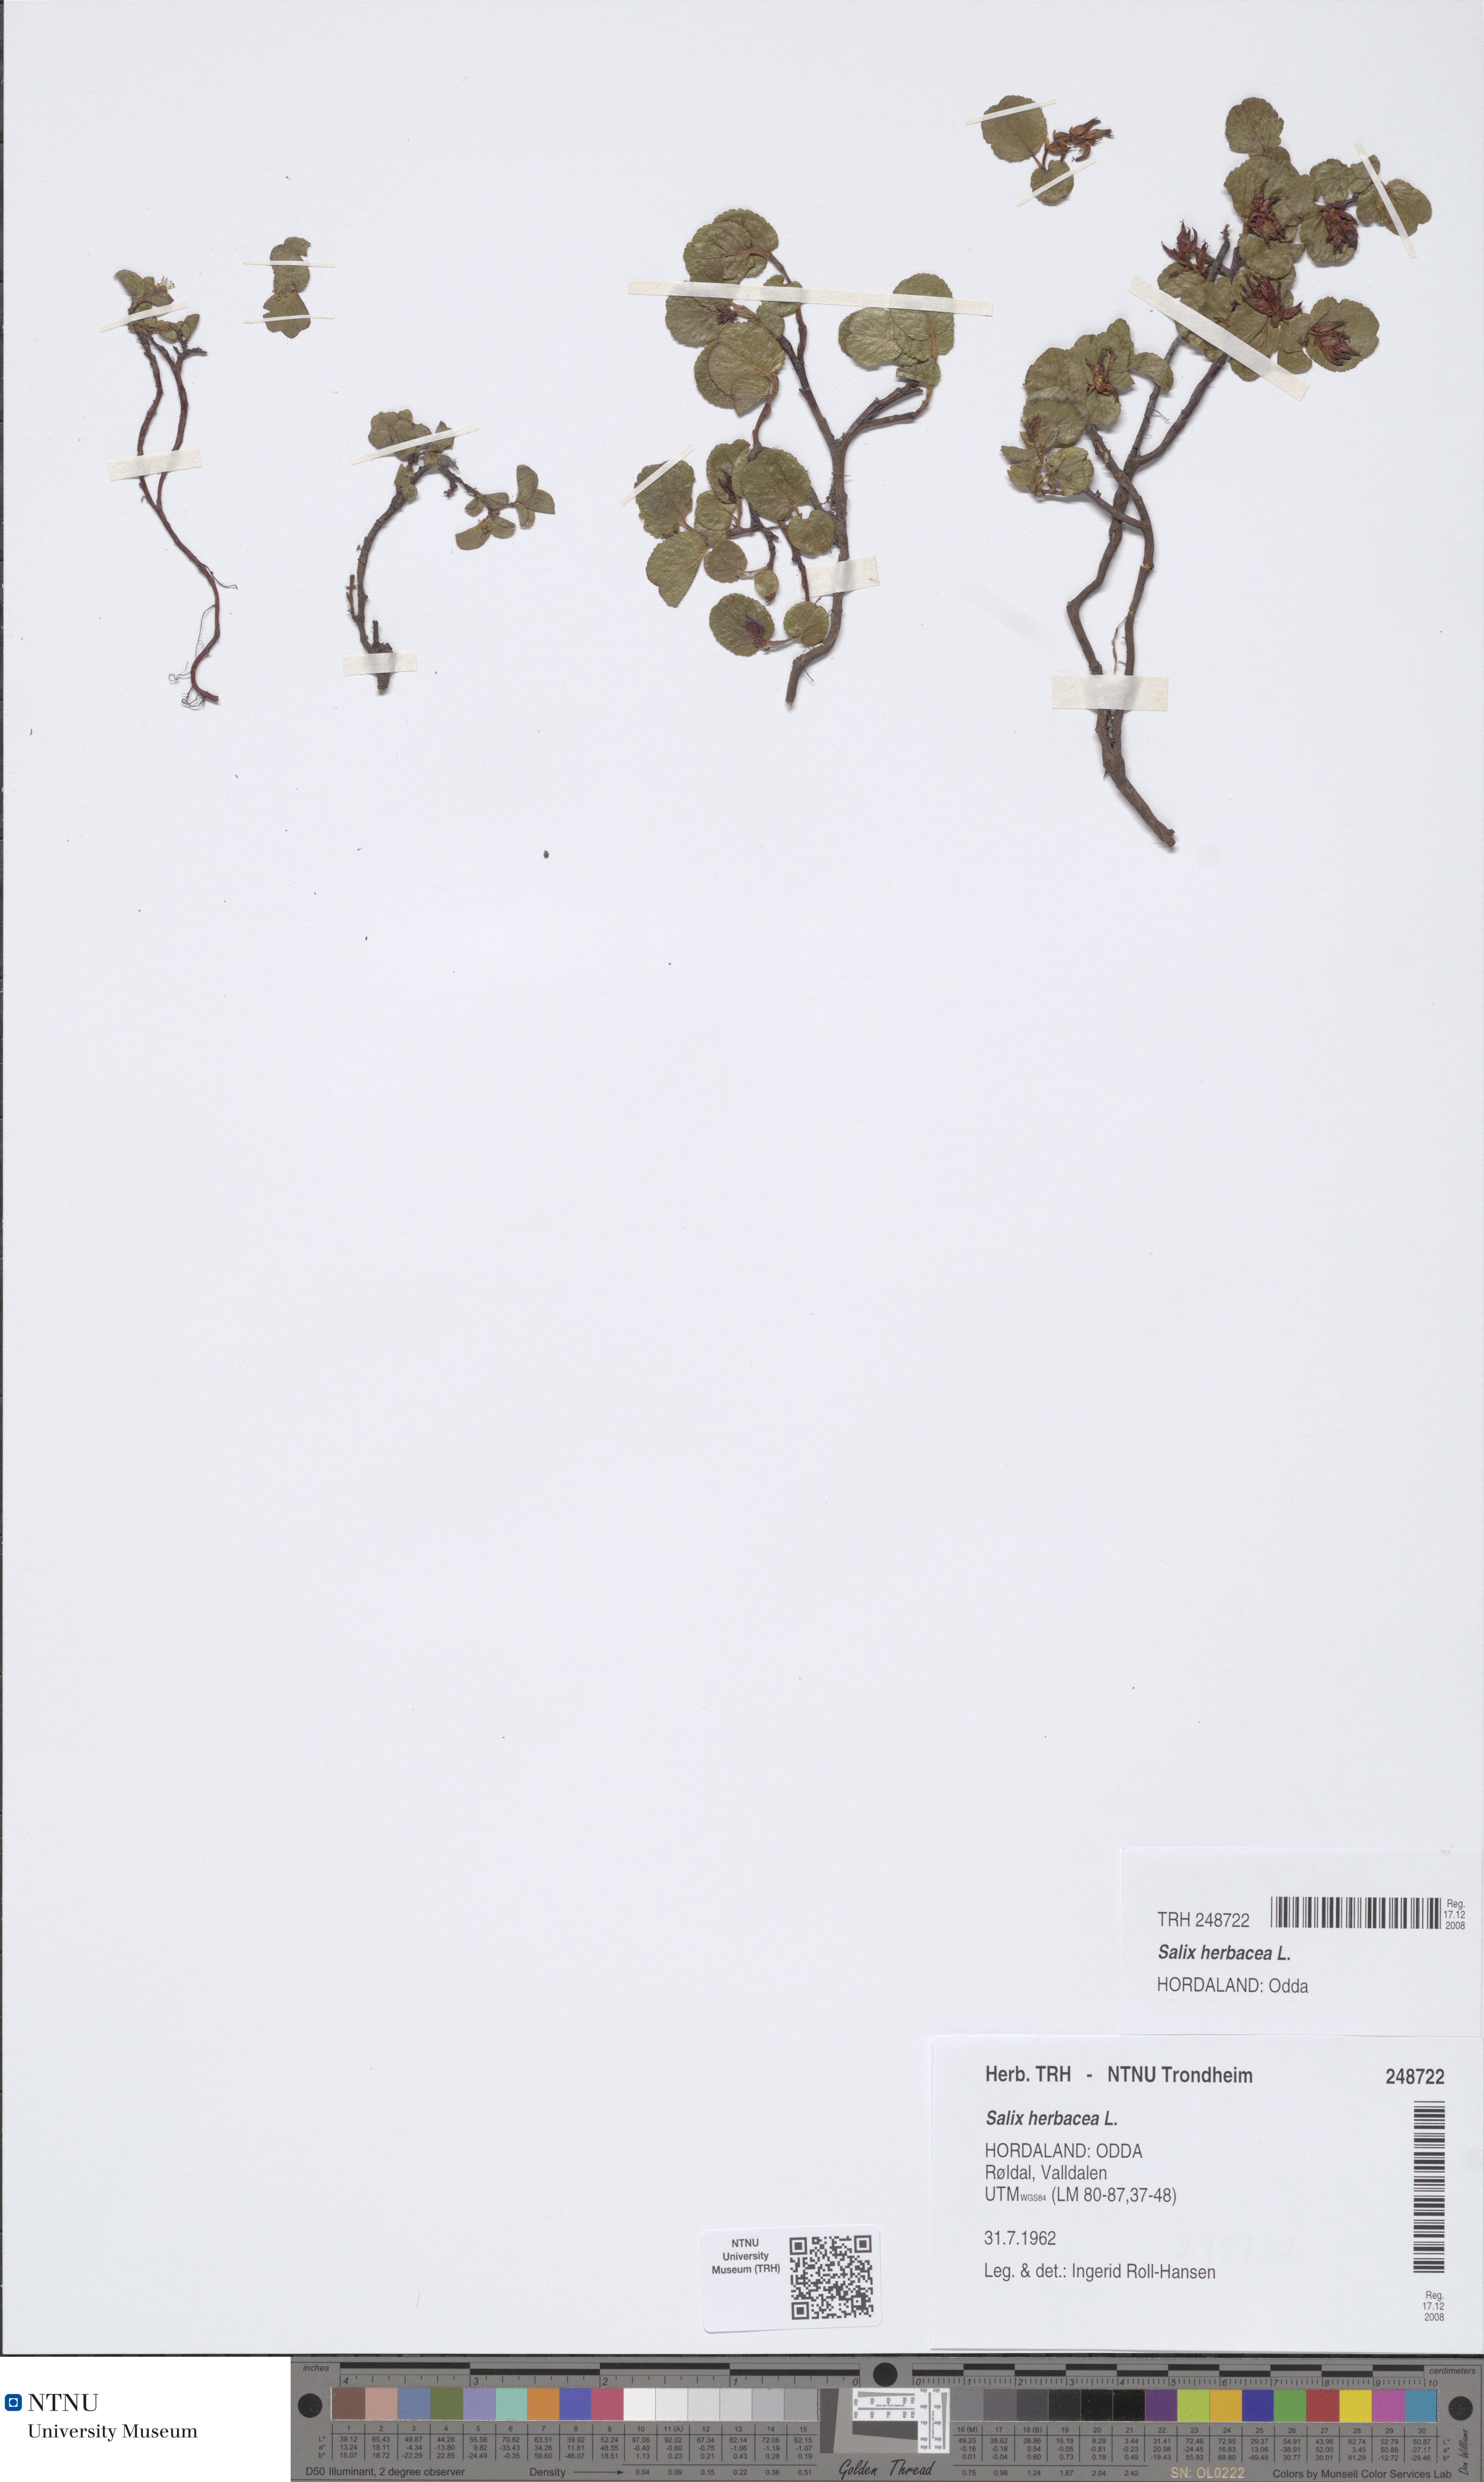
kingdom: Plantae
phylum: Tracheophyta
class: Magnoliopsida
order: Malpighiales
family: Salicaceae
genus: Salix
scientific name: Salix herbacea
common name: Dwarf willow
